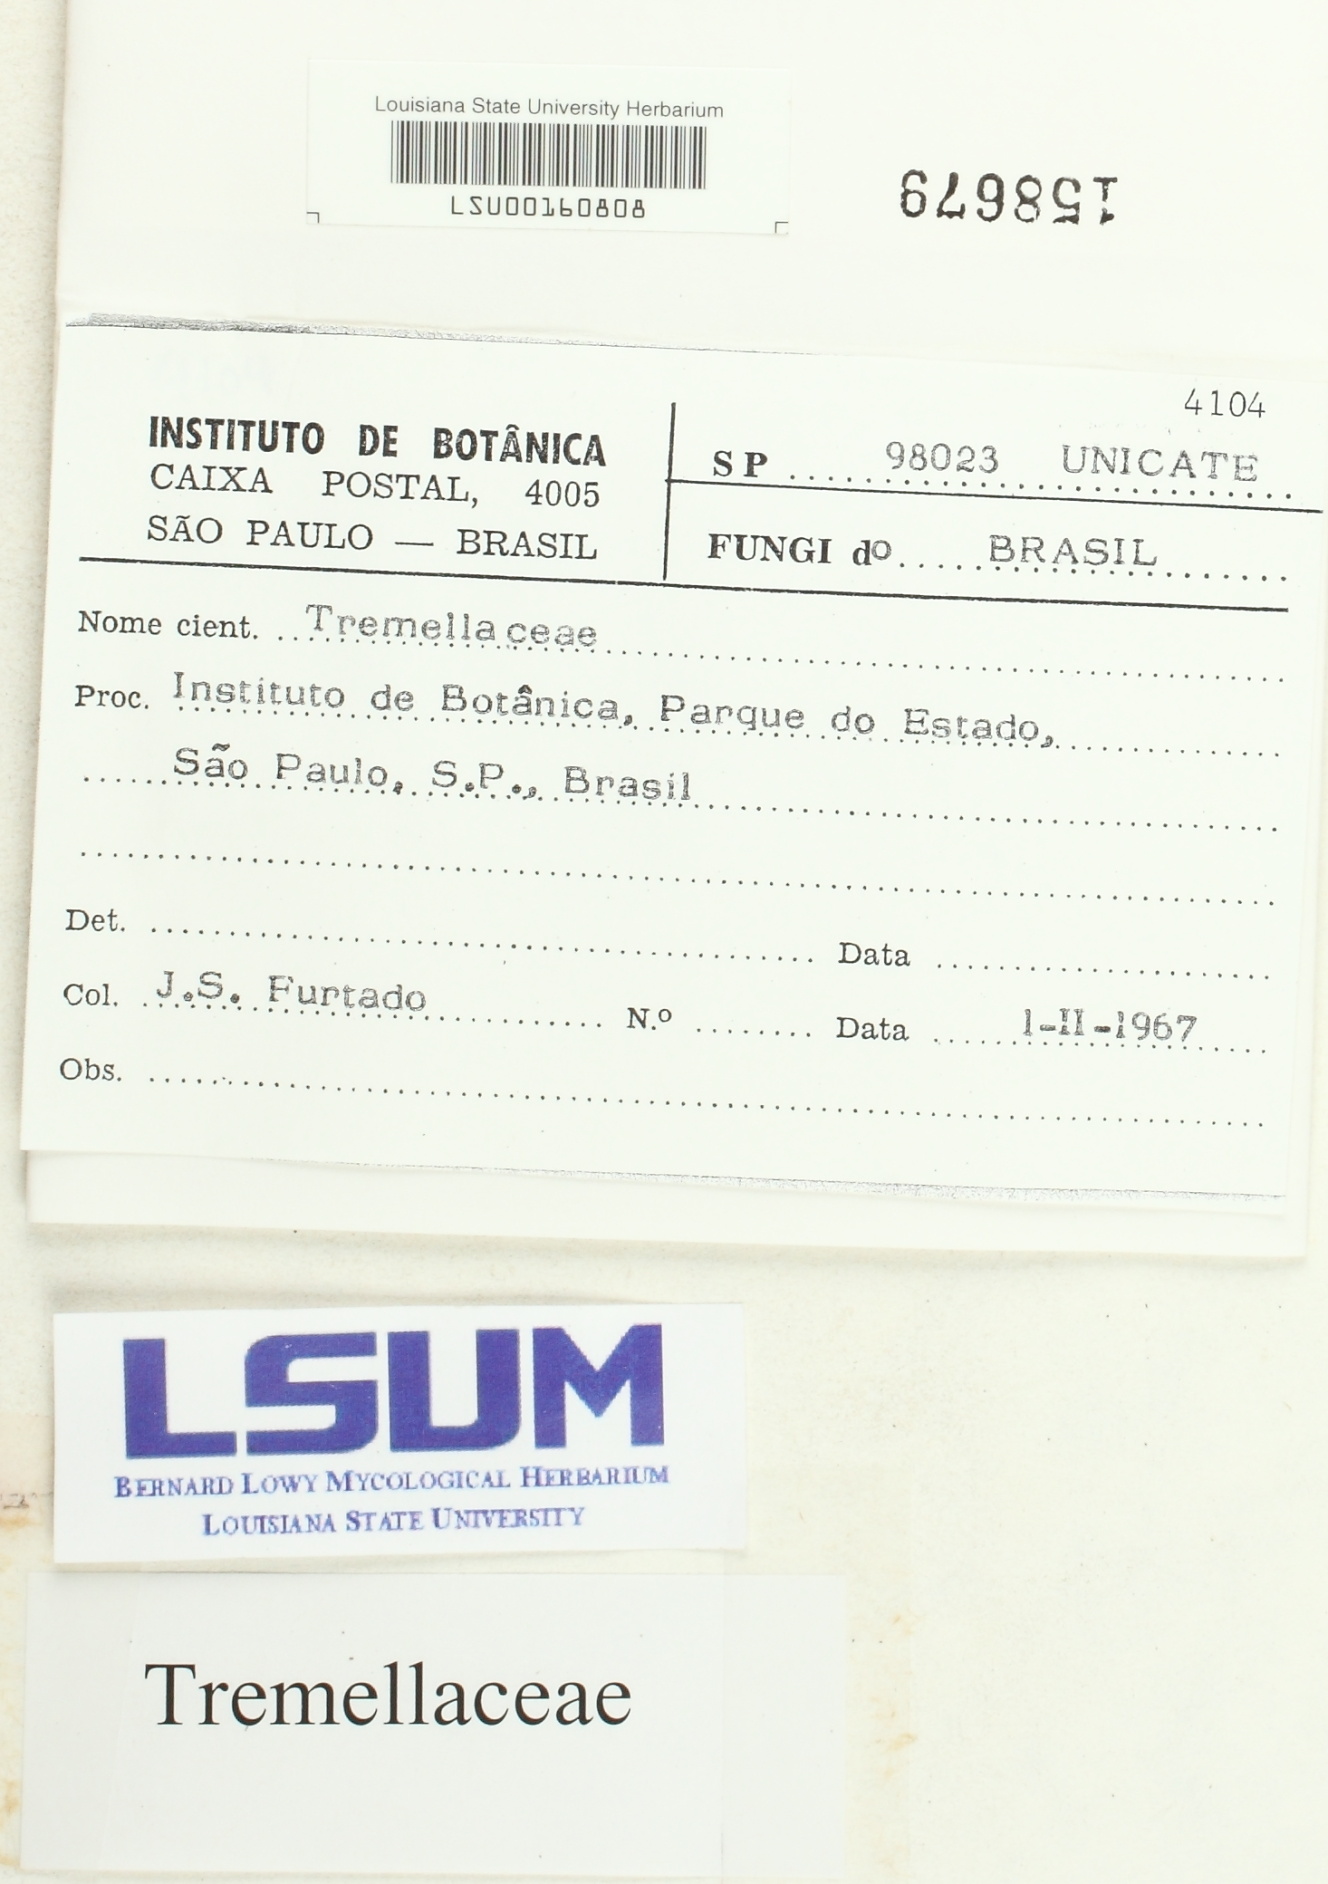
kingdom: Fungi
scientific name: Fungi
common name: Fungi
